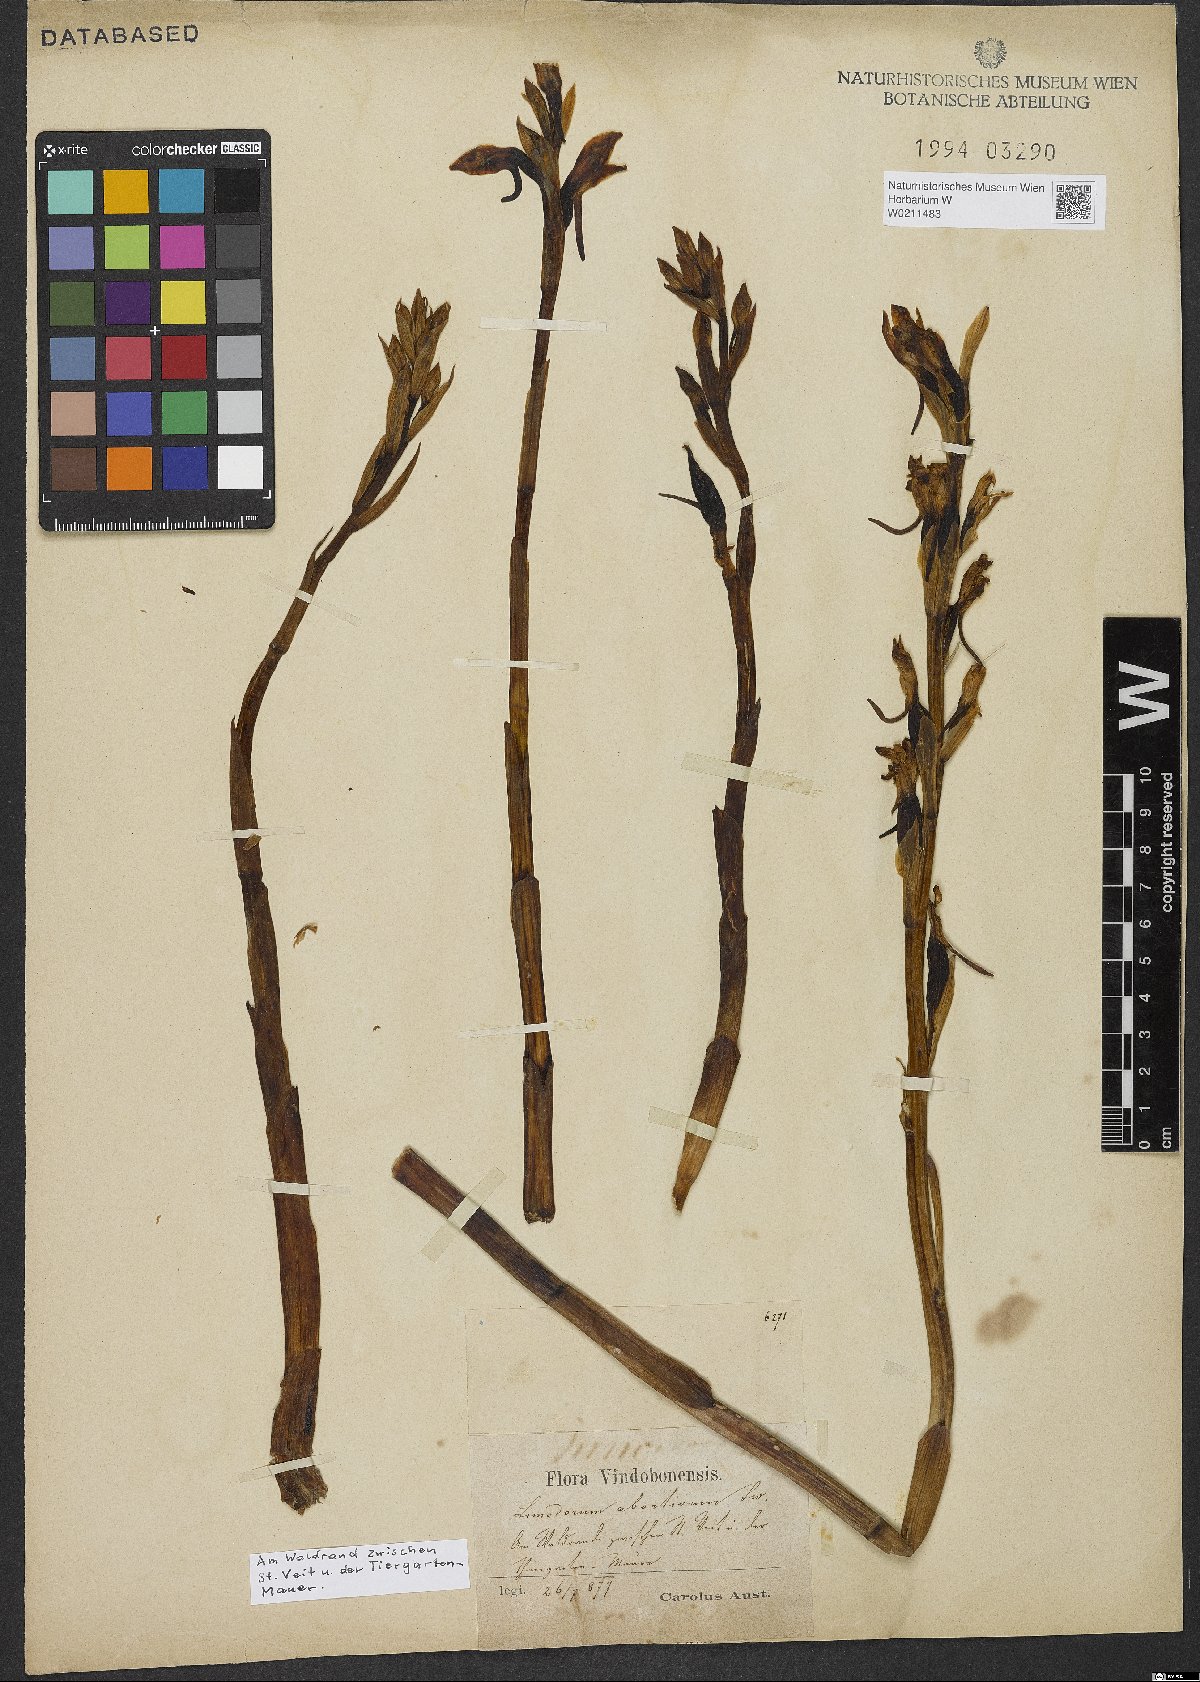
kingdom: Plantae
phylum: Tracheophyta
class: Liliopsida
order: Asparagales
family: Orchidaceae
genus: Limodorum
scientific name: Limodorum abortivum
